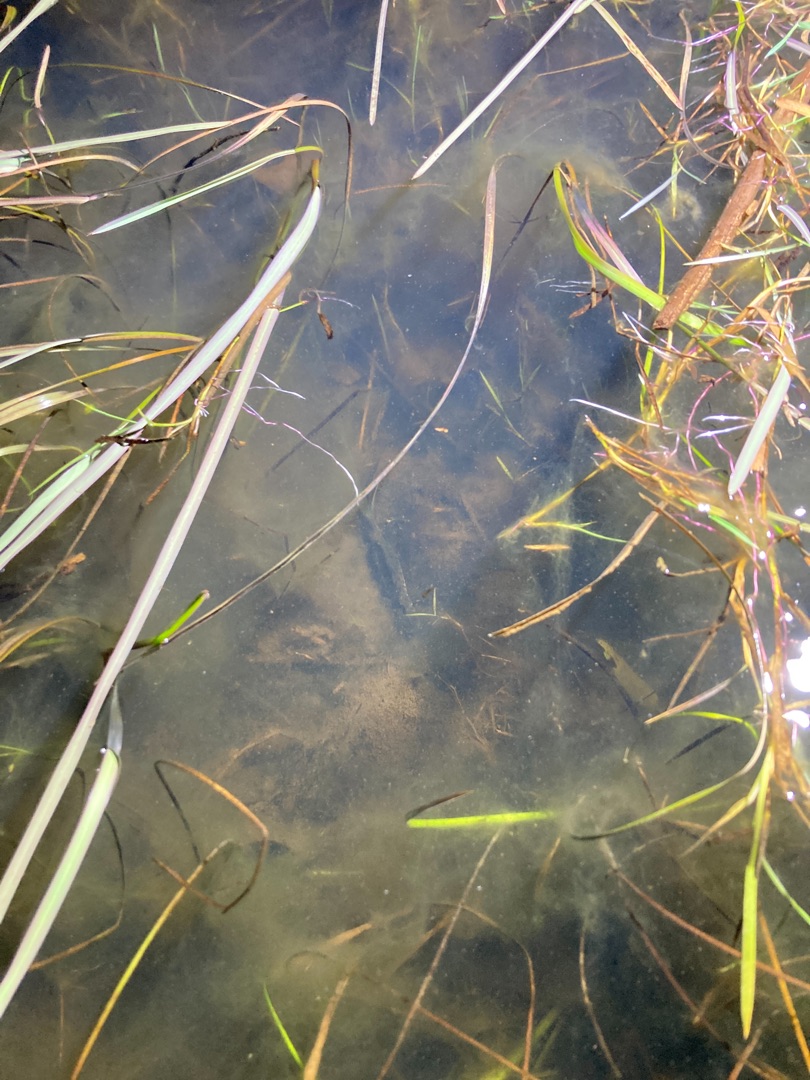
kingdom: Animalia
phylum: Chordata
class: Amphibia
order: Caudata
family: Salamandridae
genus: Triturus
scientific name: Triturus cristatus
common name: Stor vandsalamander
